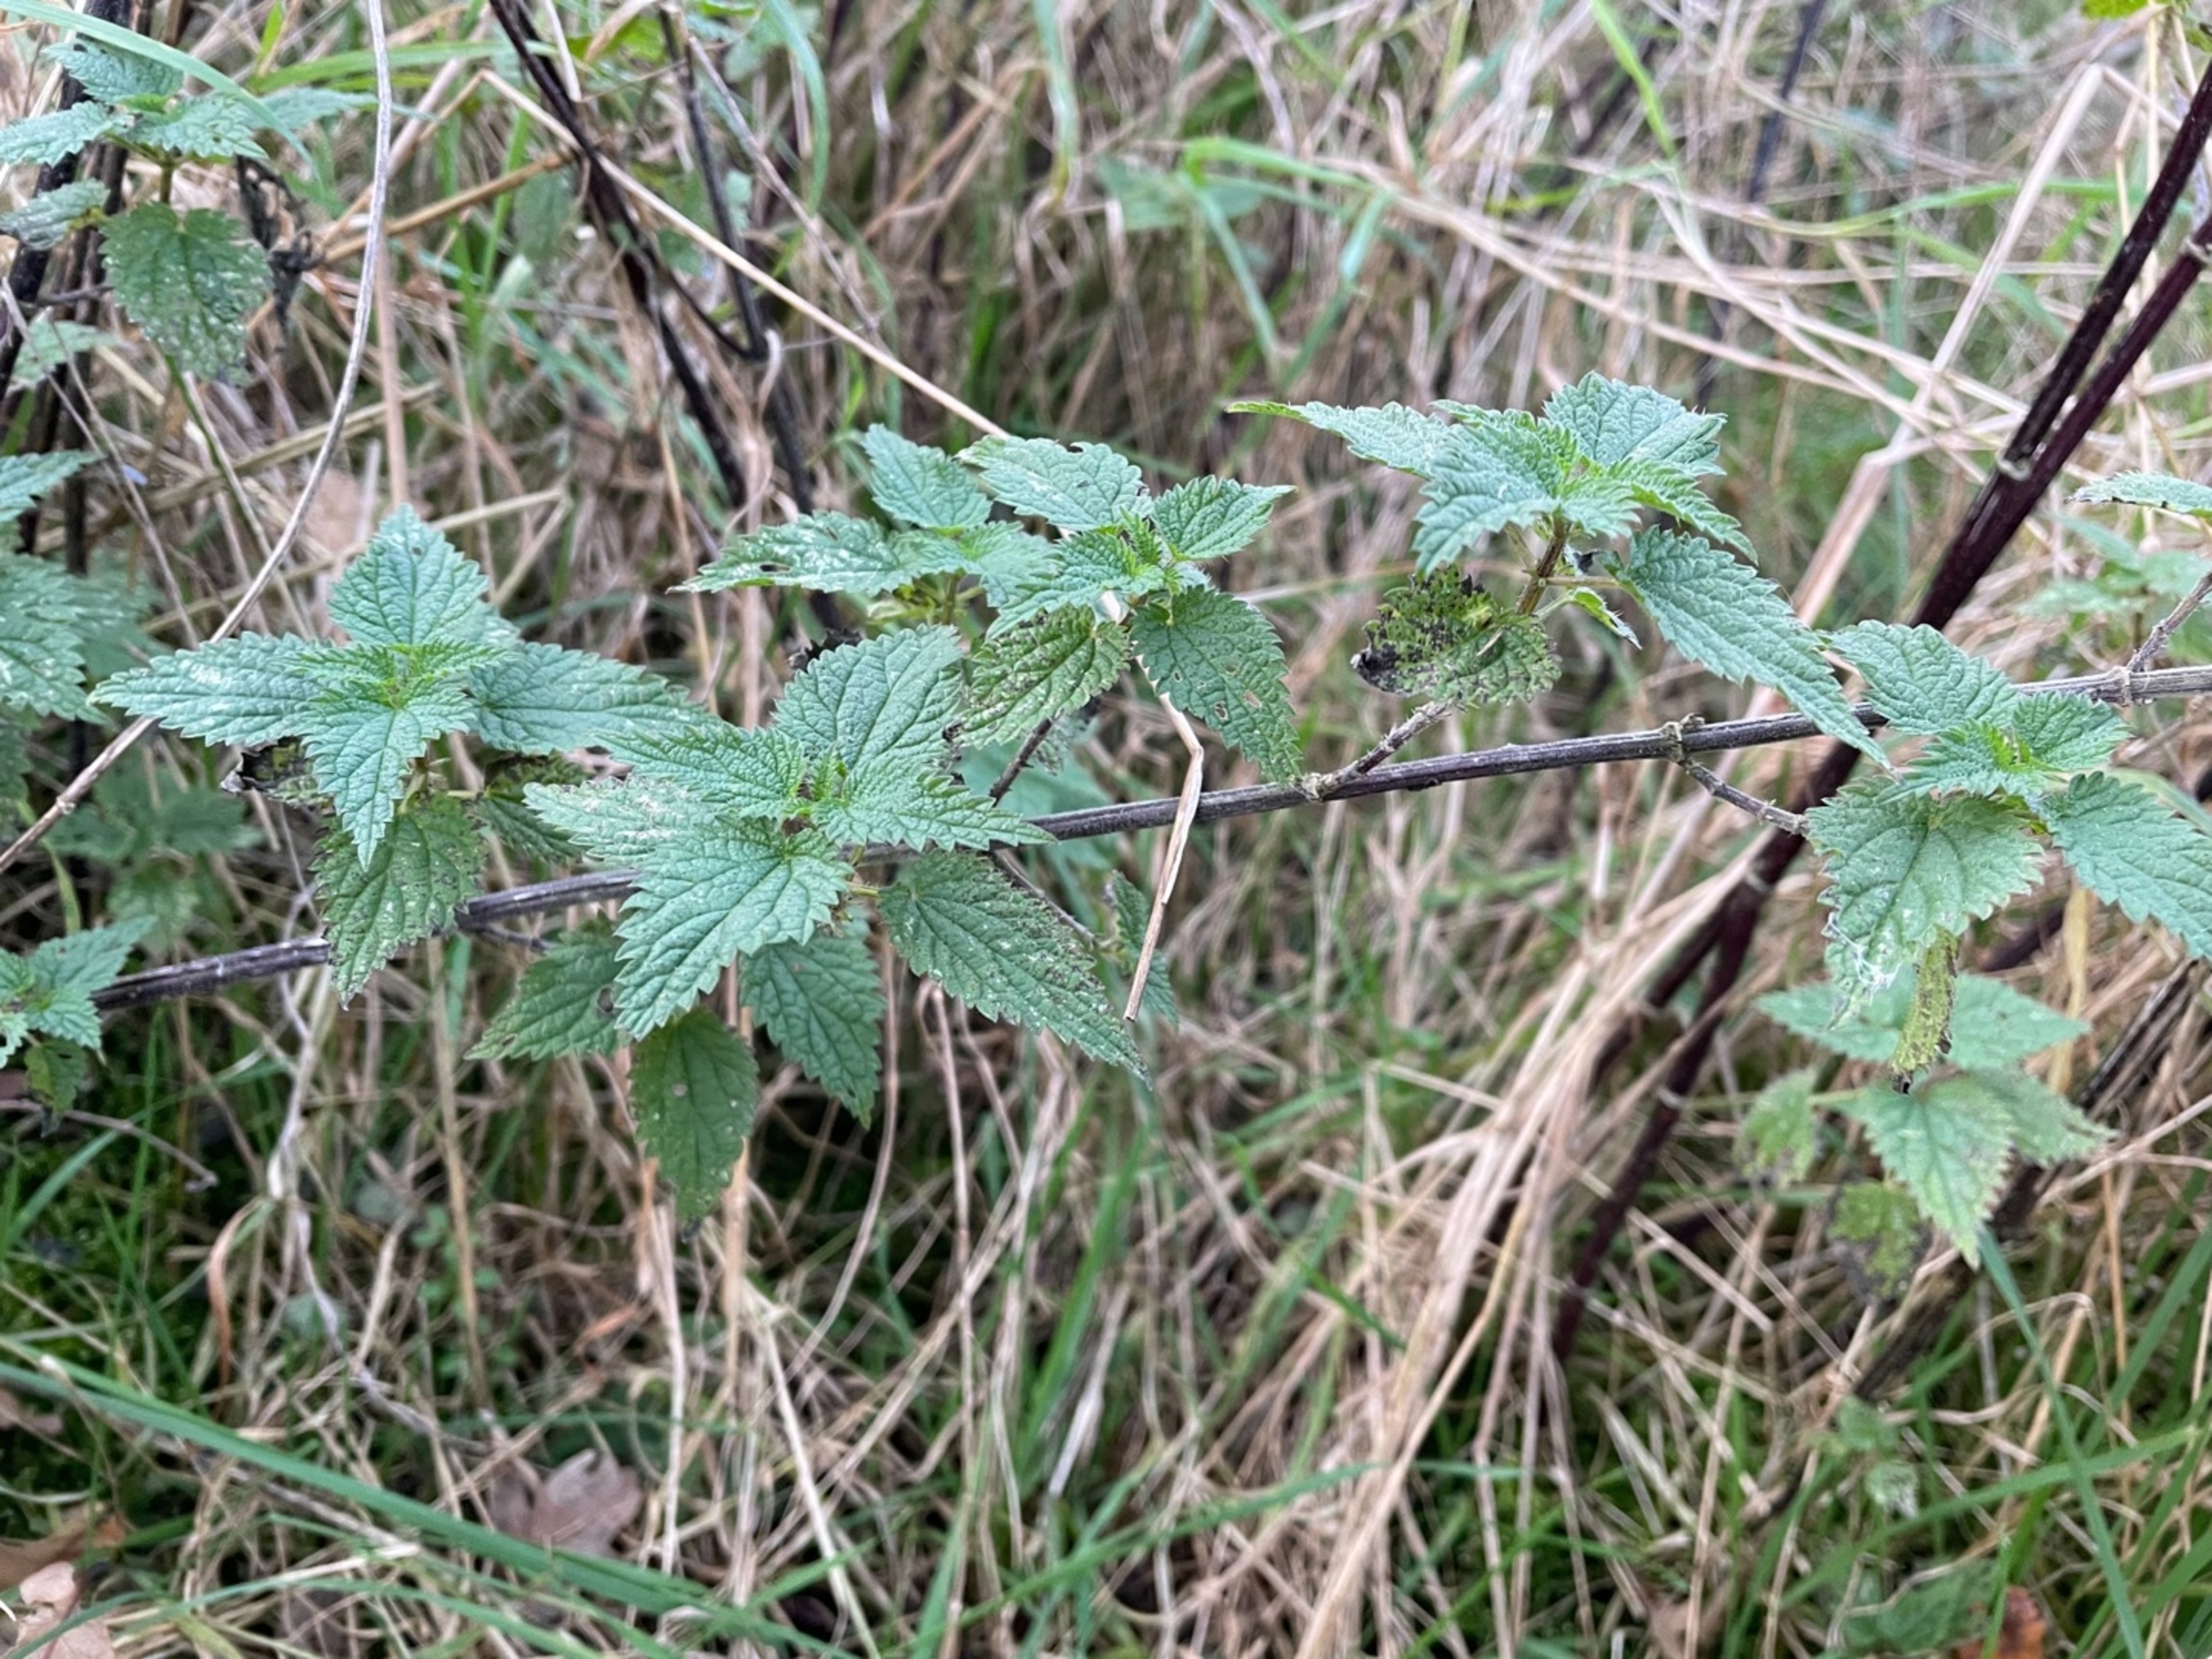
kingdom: Plantae
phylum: Tracheophyta
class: Magnoliopsida
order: Rosales
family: Urticaceae
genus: Urtica
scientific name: Urtica dioica
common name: Stor nælde
